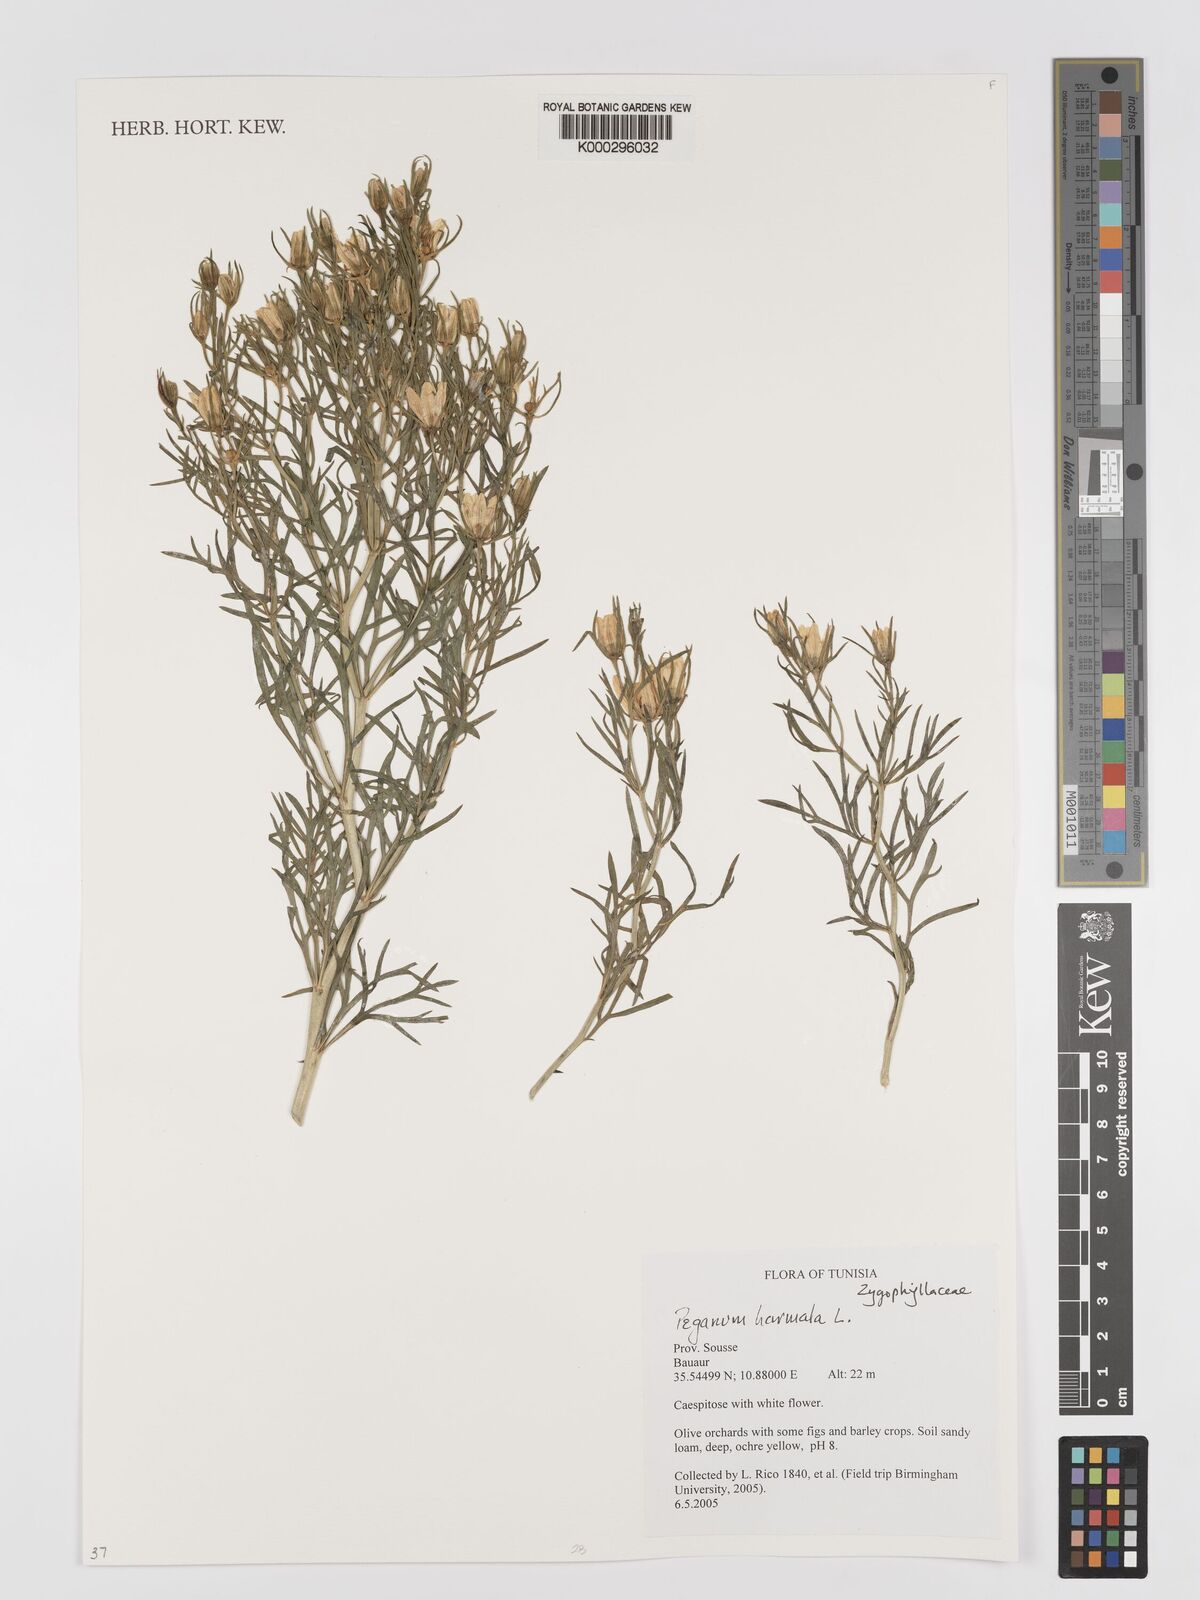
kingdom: Plantae
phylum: Tracheophyta
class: Magnoliopsida
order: Sapindales
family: Tetradiclidaceae
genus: Peganum
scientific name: Peganum harmala
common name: Harmal peganum
